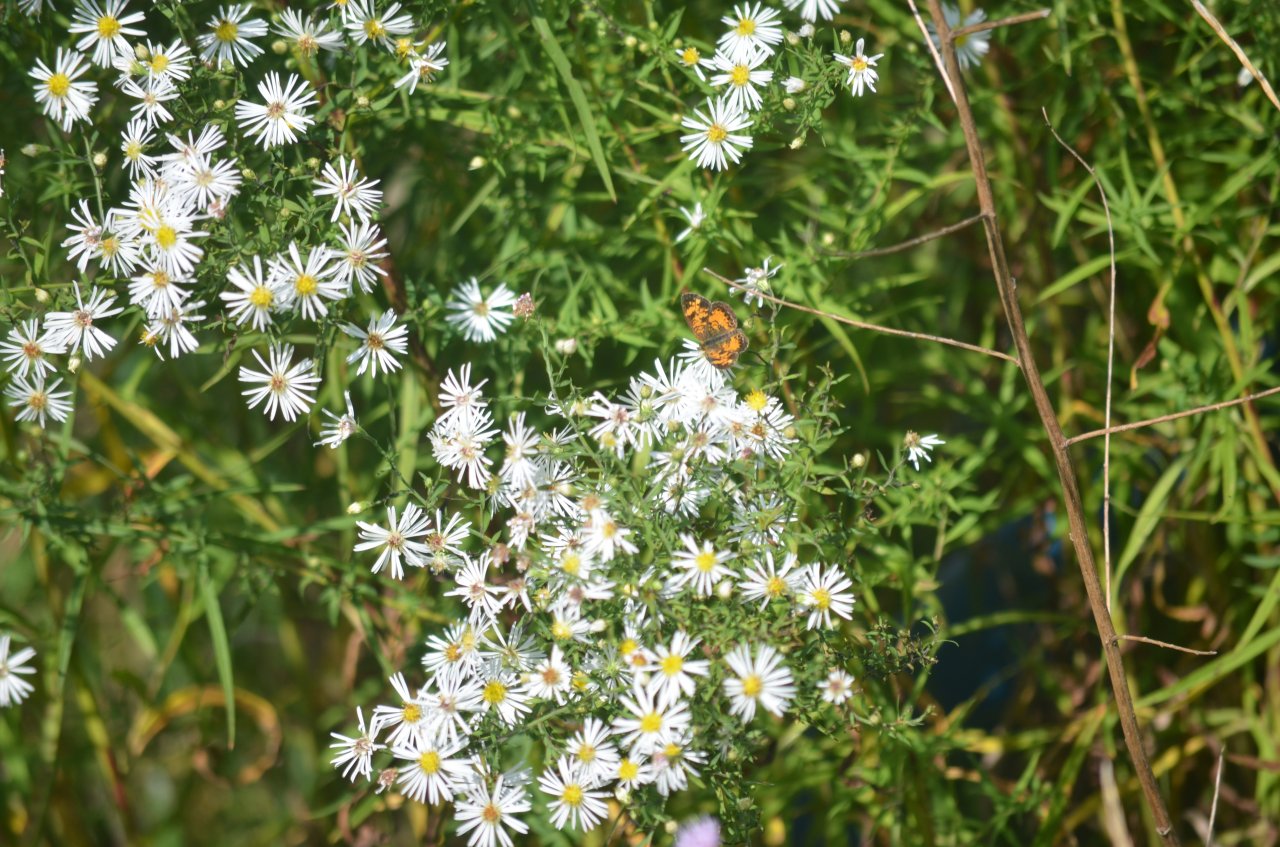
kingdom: Animalia
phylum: Arthropoda
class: Insecta
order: Lepidoptera
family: Nymphalidae
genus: Phyciodes
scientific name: Phyciodes tharos
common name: Northern Crescent
